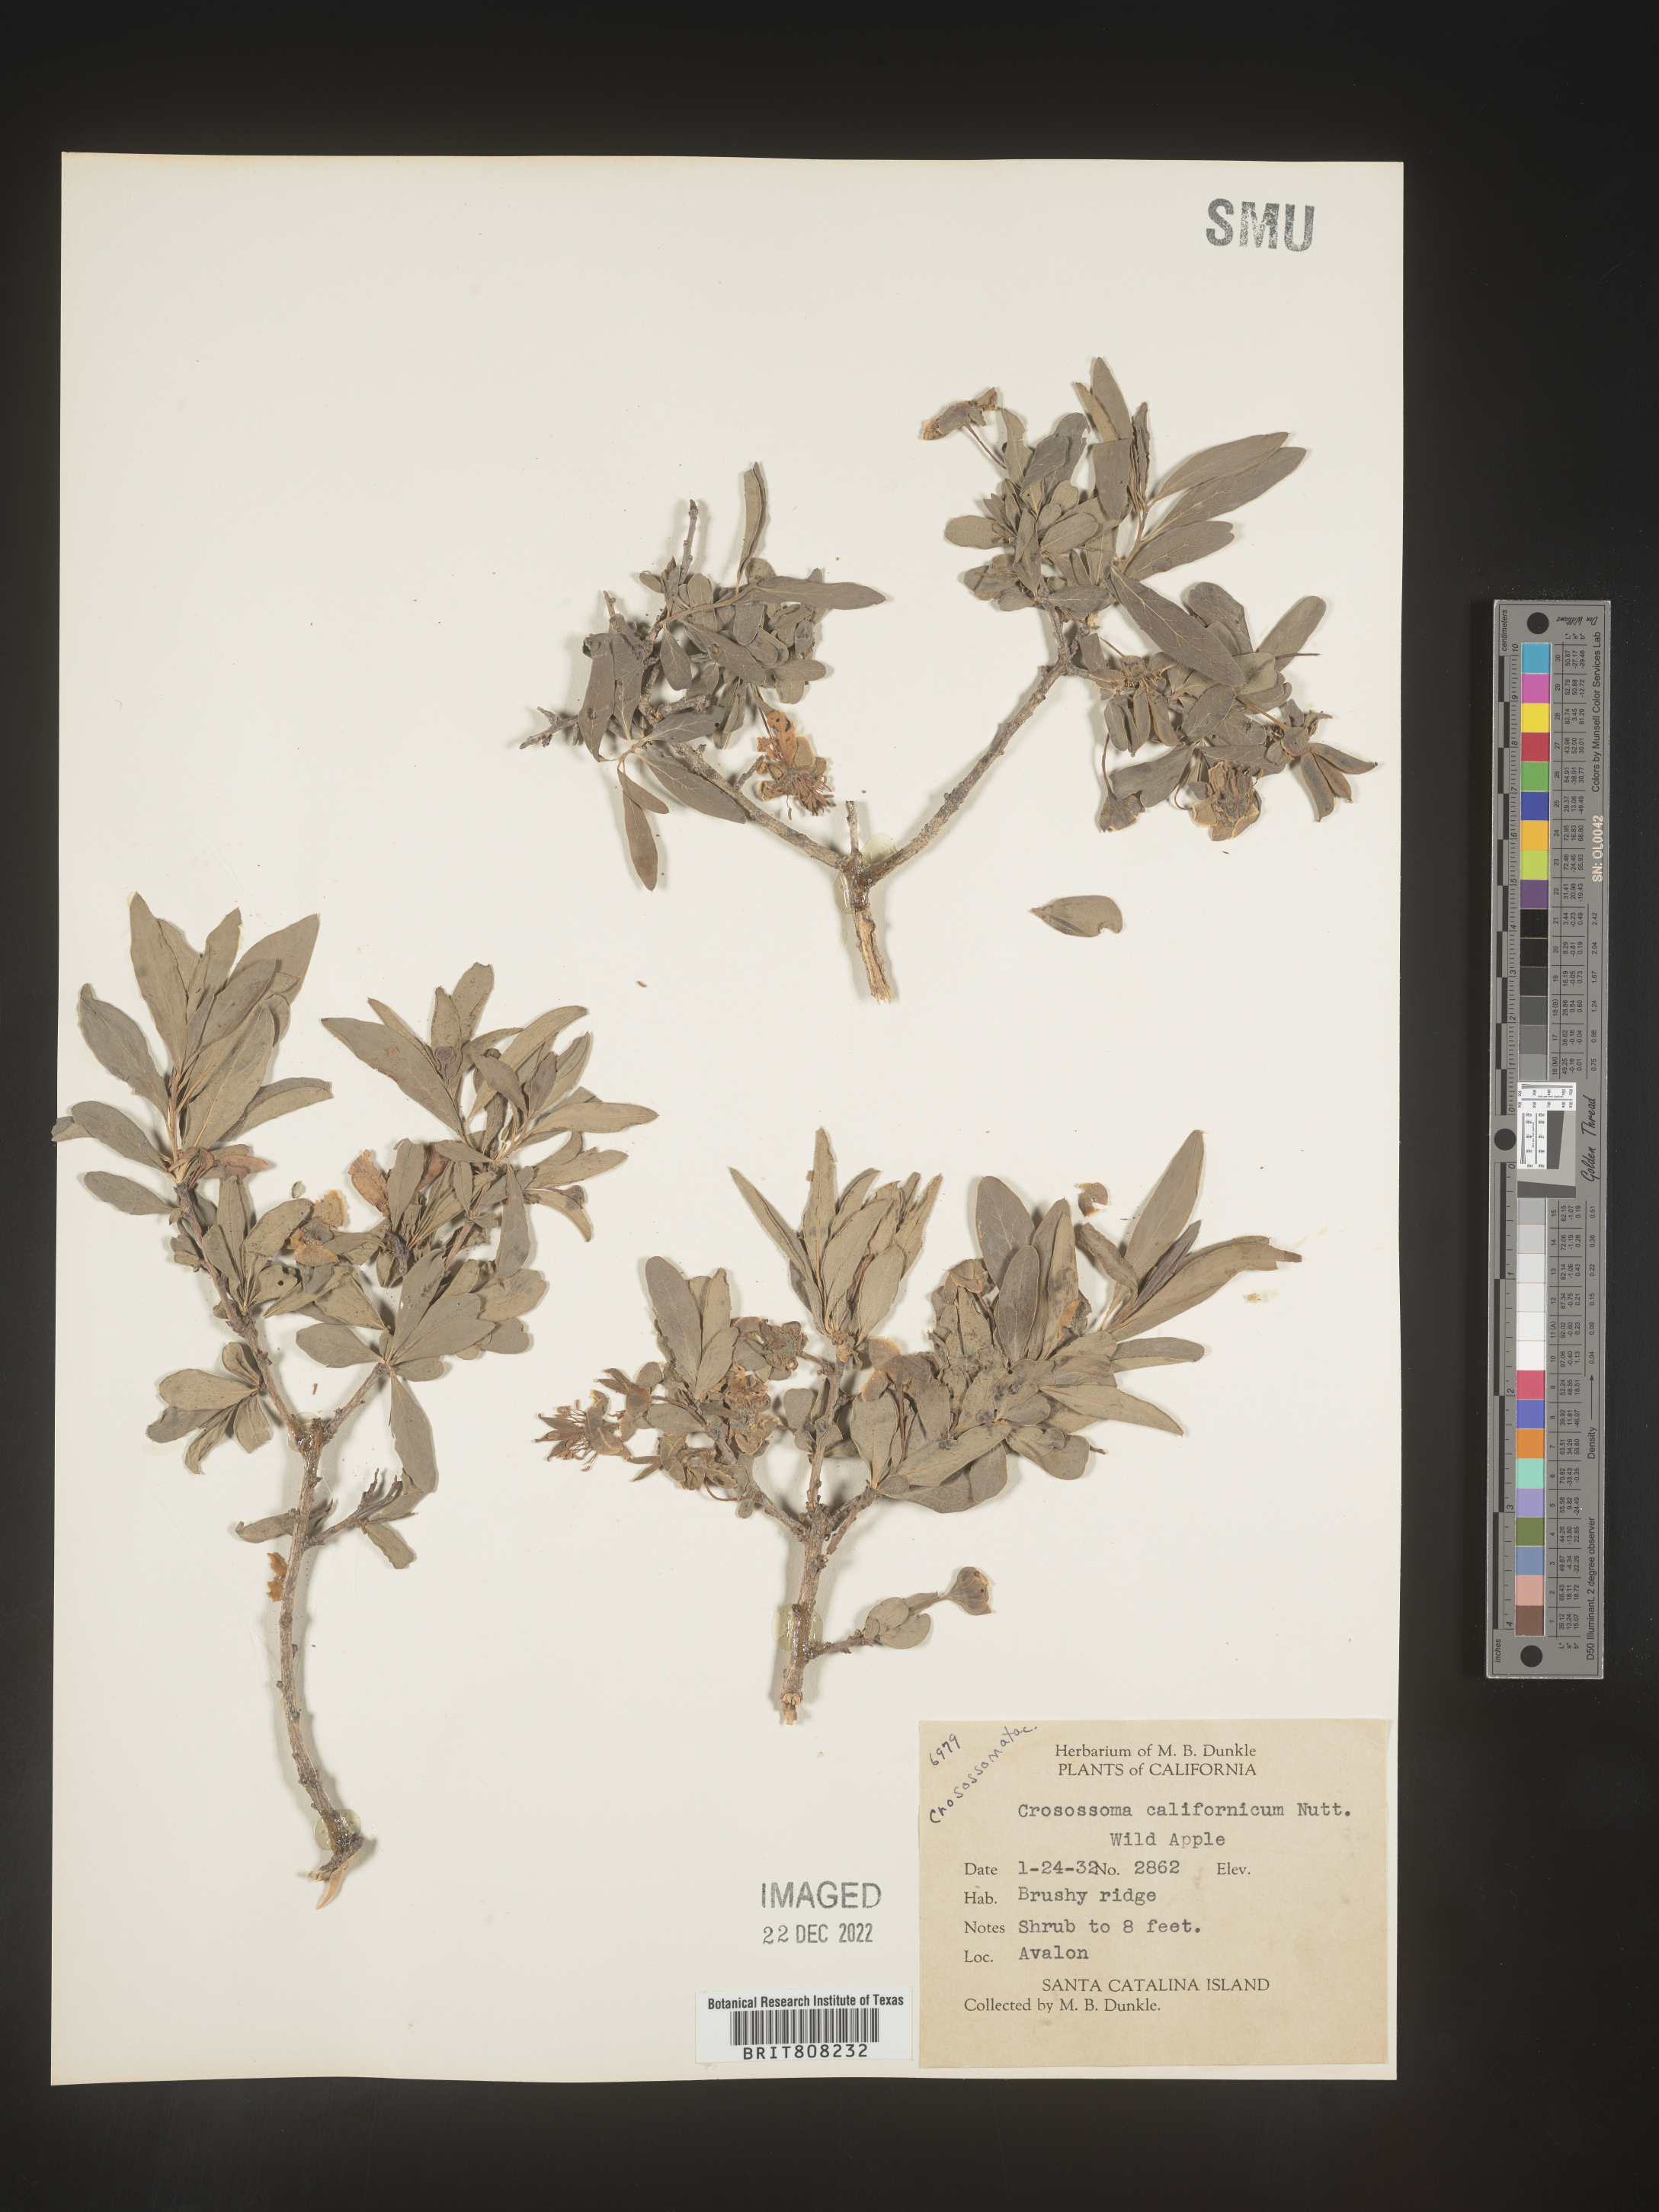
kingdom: Plantae
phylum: Tracheophyta
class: Magnoliopsida
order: Crossosomatales
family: Crossosomataceae
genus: Crossosoma
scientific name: Crossosoma californicum
